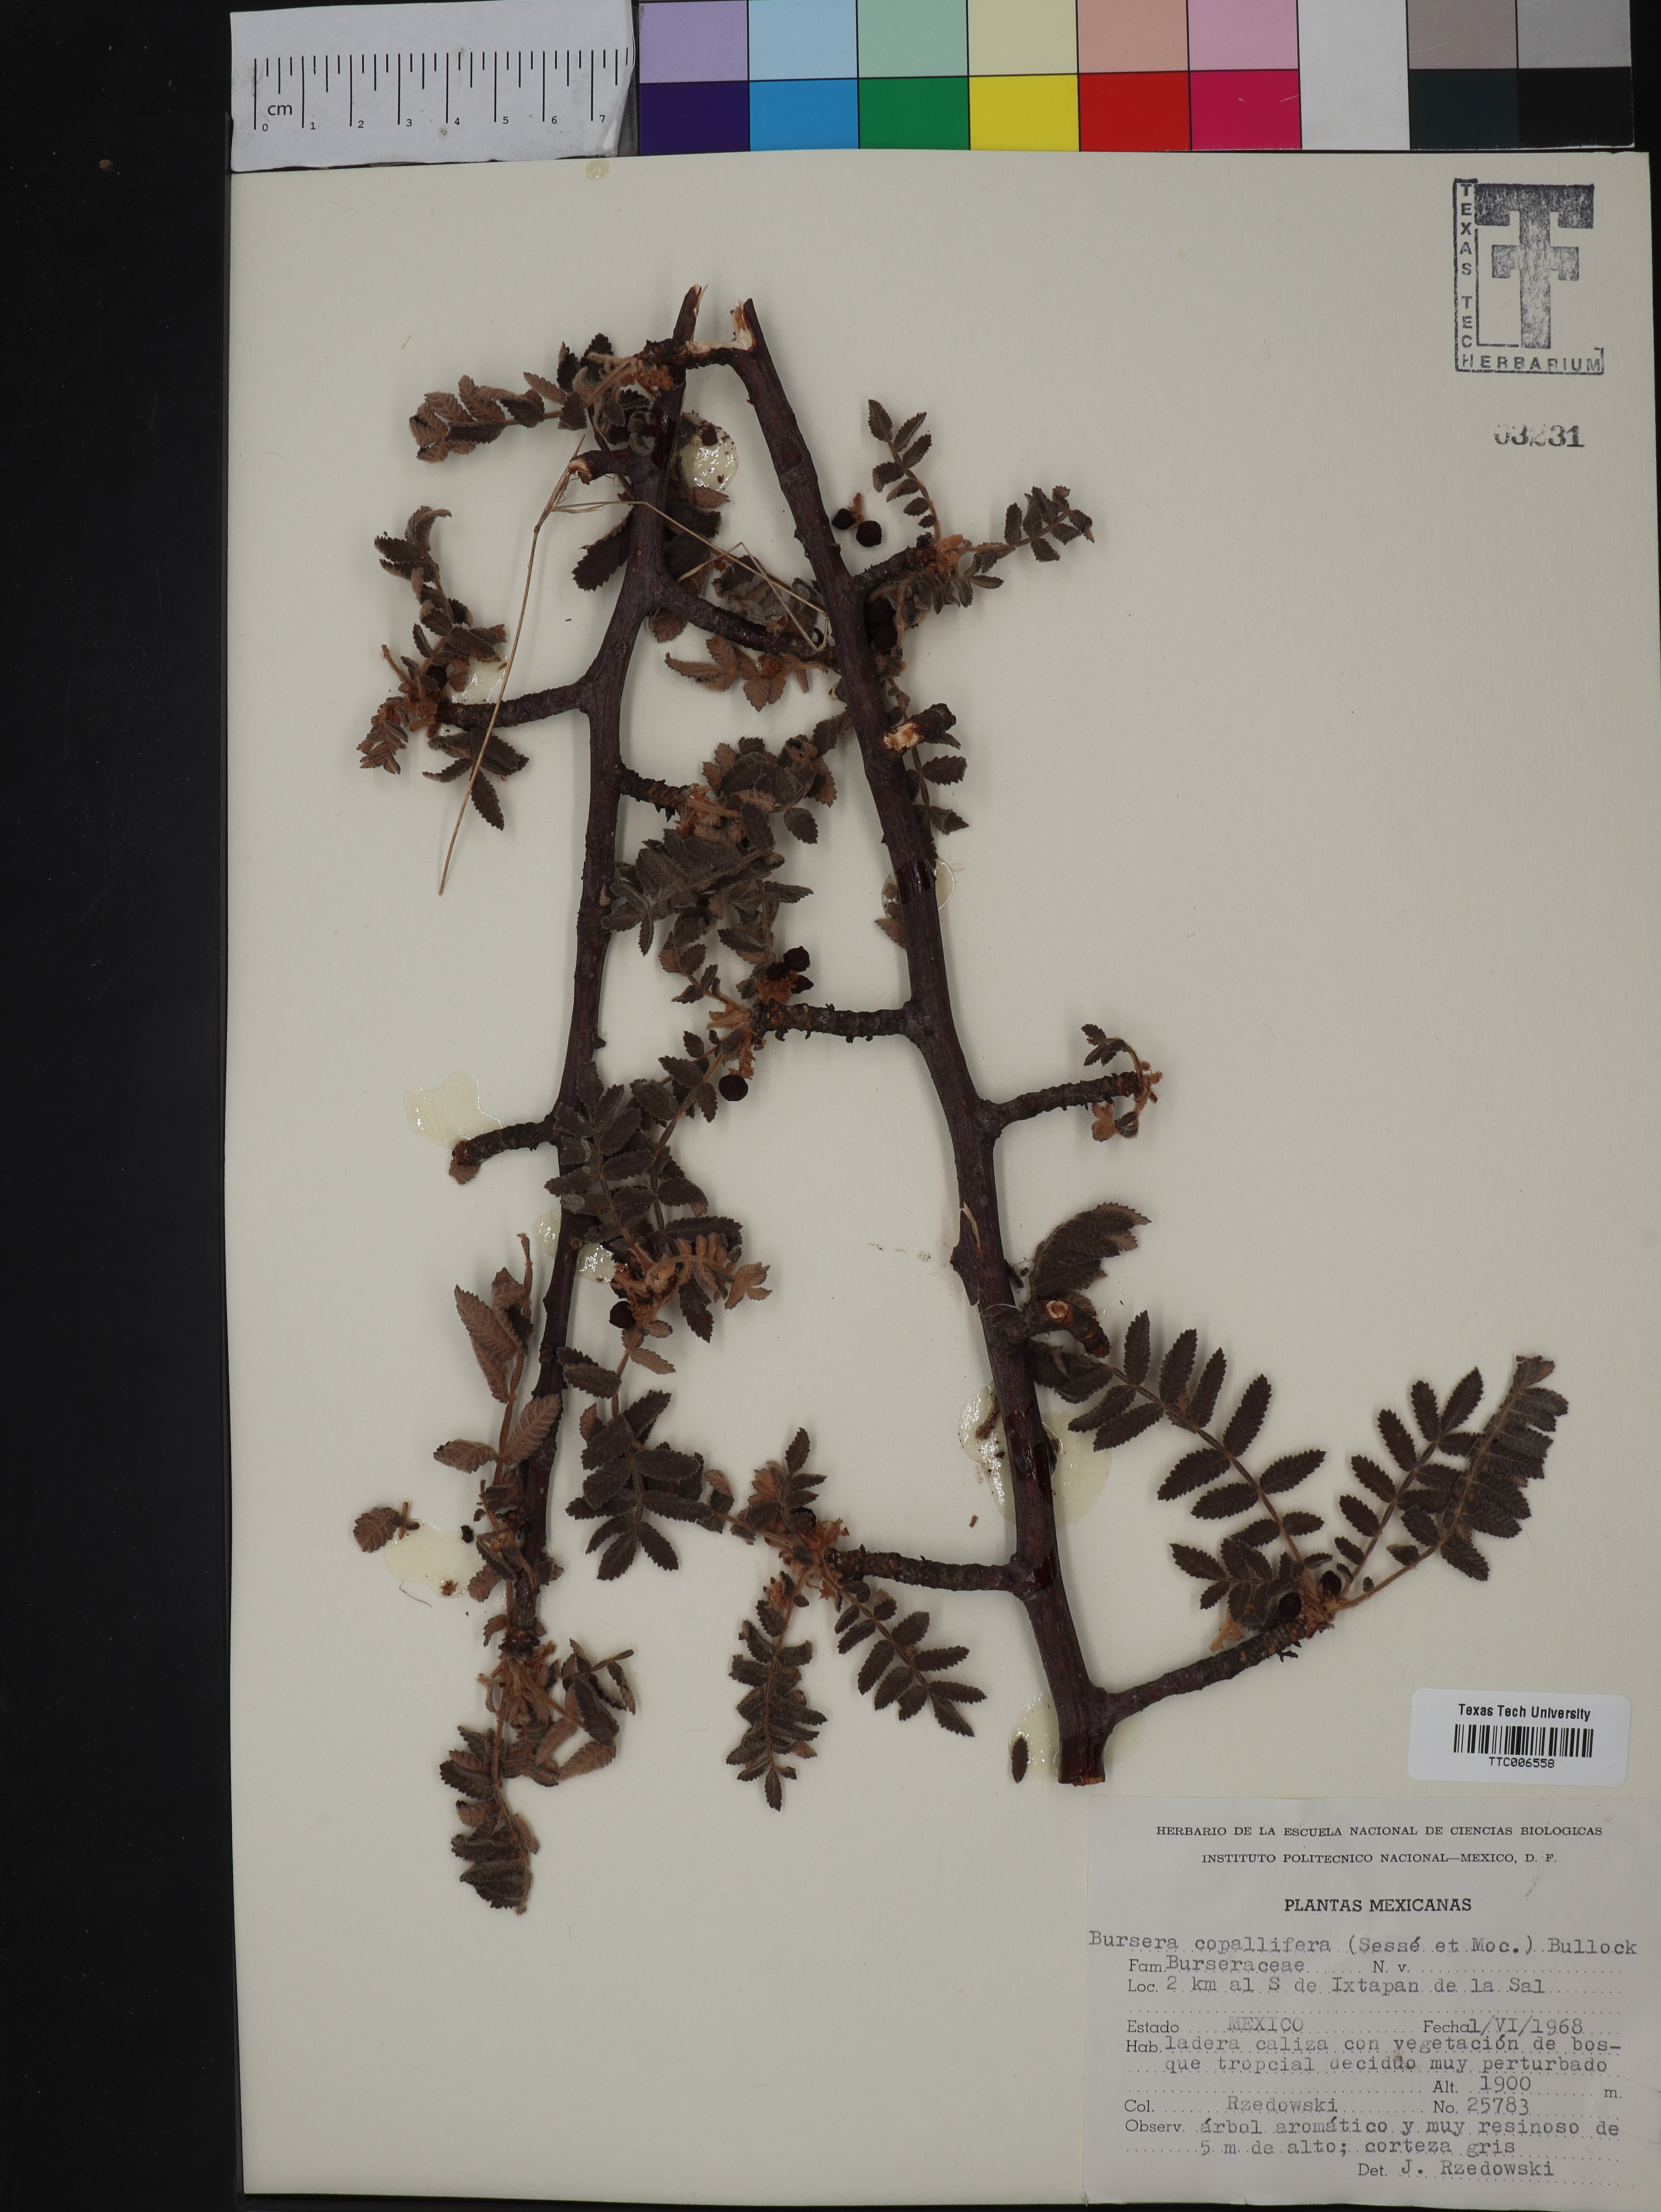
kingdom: Plantae
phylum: Tracheophyta
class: Magnoliopsida
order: Sapindales
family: Burseraceae
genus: Bursera
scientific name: Bursera copallifera
